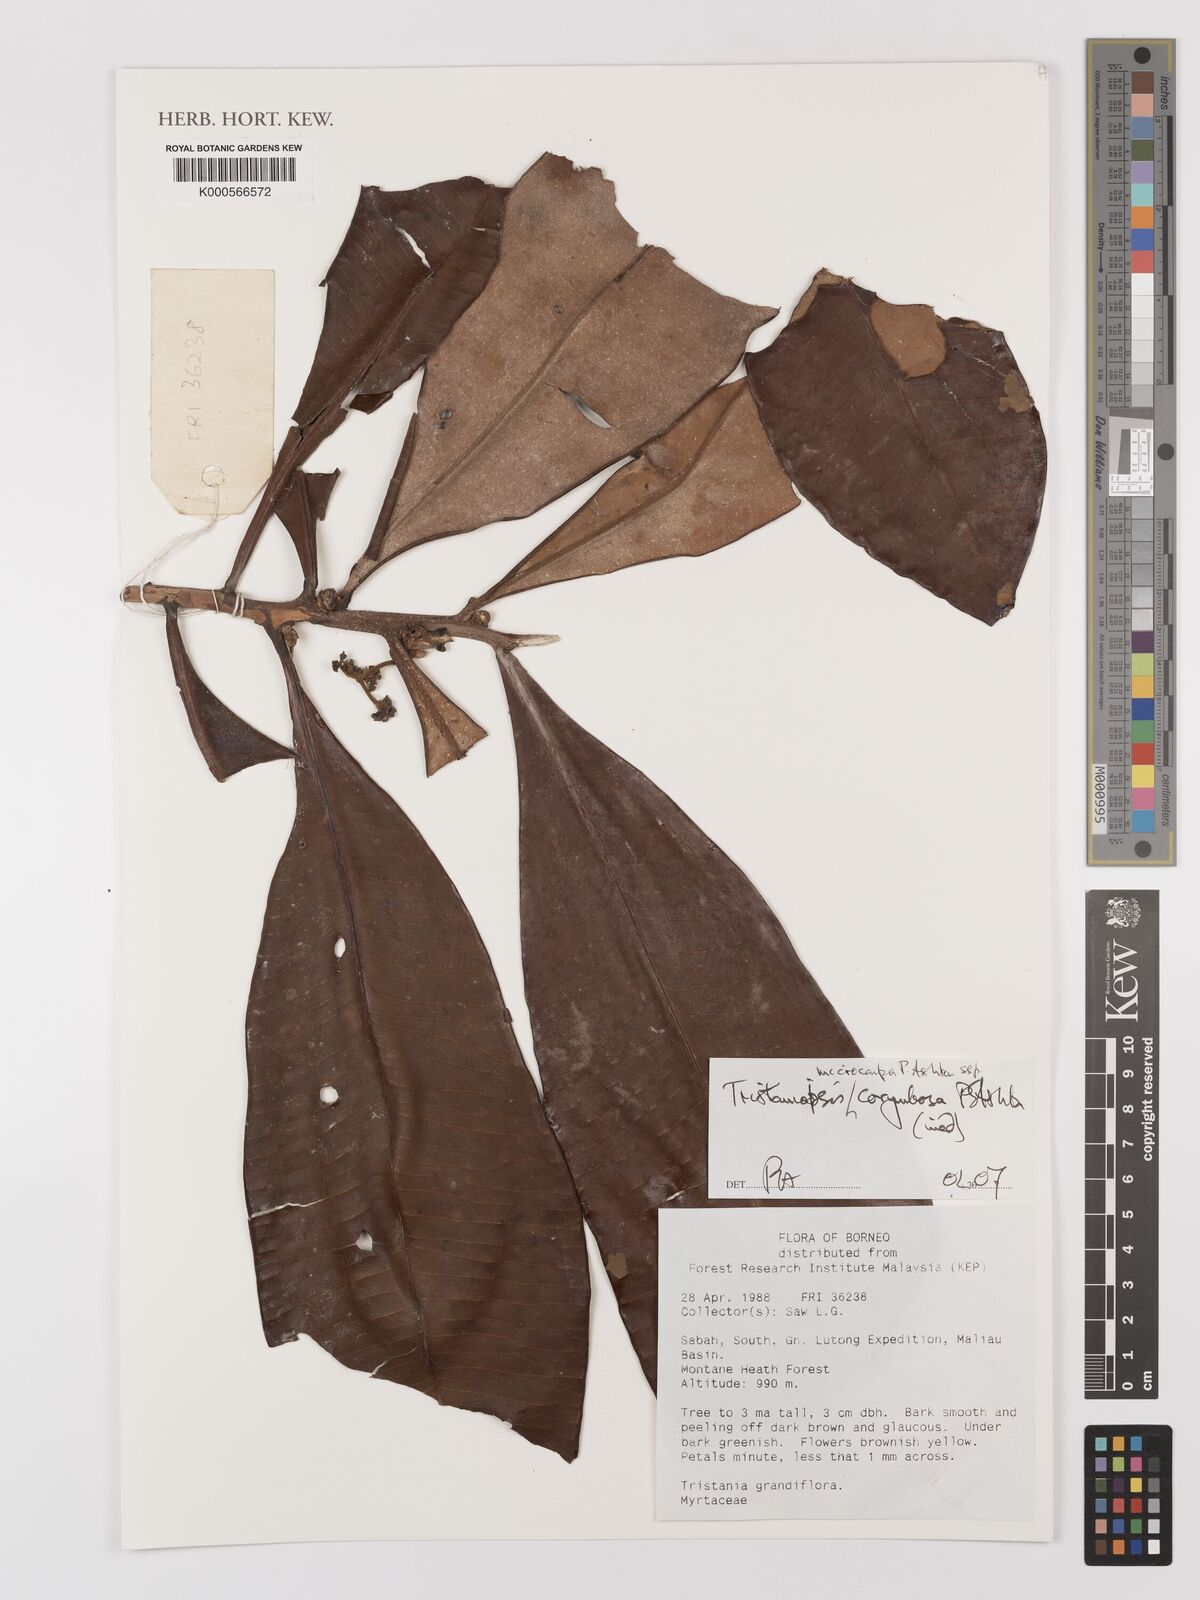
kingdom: Plantae
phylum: Tracheophyta
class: Magnoliopsida
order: Myrtales
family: Myrtaceae
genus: Tristaniopsis
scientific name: Tristaniopsis microcarpa
